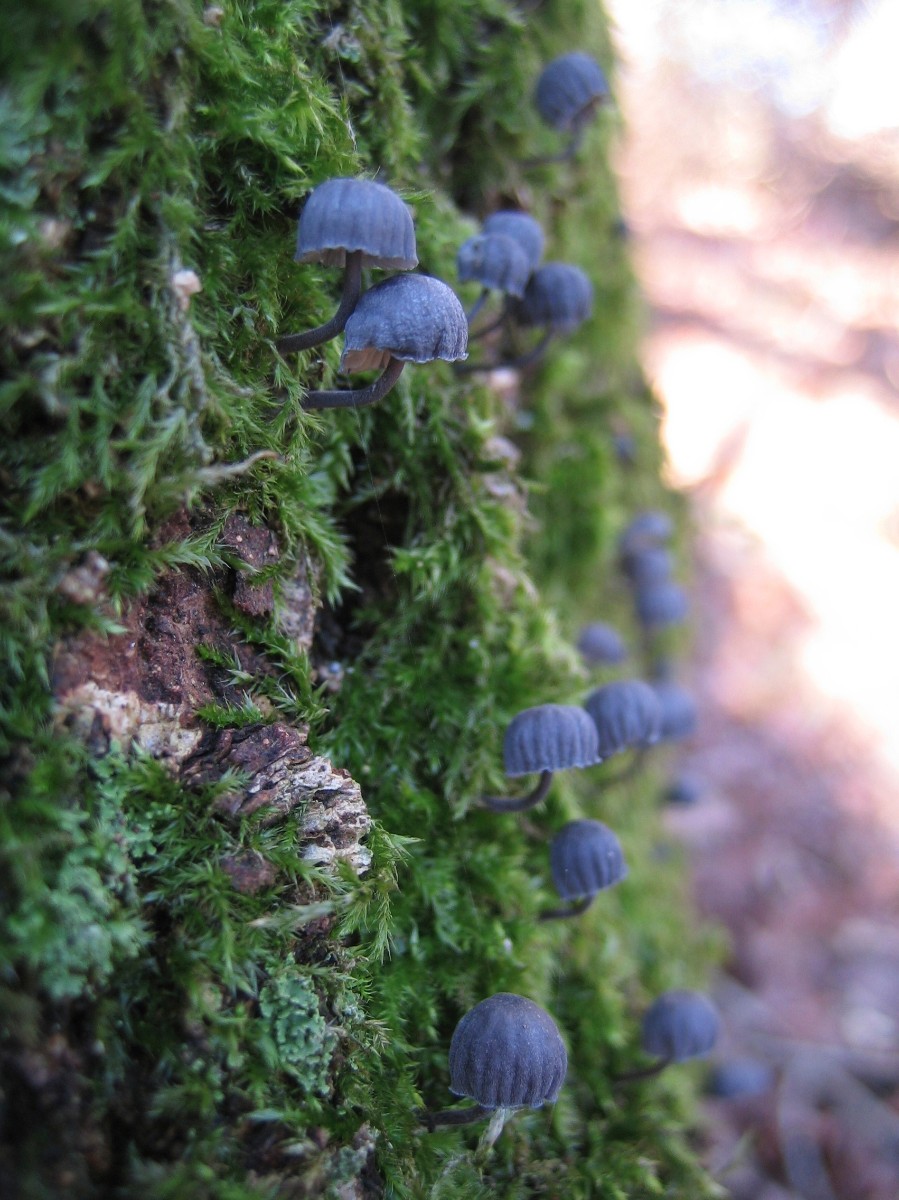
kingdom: Fungi
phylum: Basidiomycota
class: Agaricomycetes
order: Agaricales
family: Mycenaceae
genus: Mycena
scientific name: Mycena pseudocorticola
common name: gråblå bark-huesvamp
